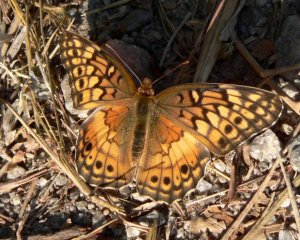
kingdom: Animalia
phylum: Arthropoda
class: Insecta
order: Lepidoptera
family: Nymphalidae
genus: Euptoieta
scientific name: Euptoieta claudia
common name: Variegated Fritillary
